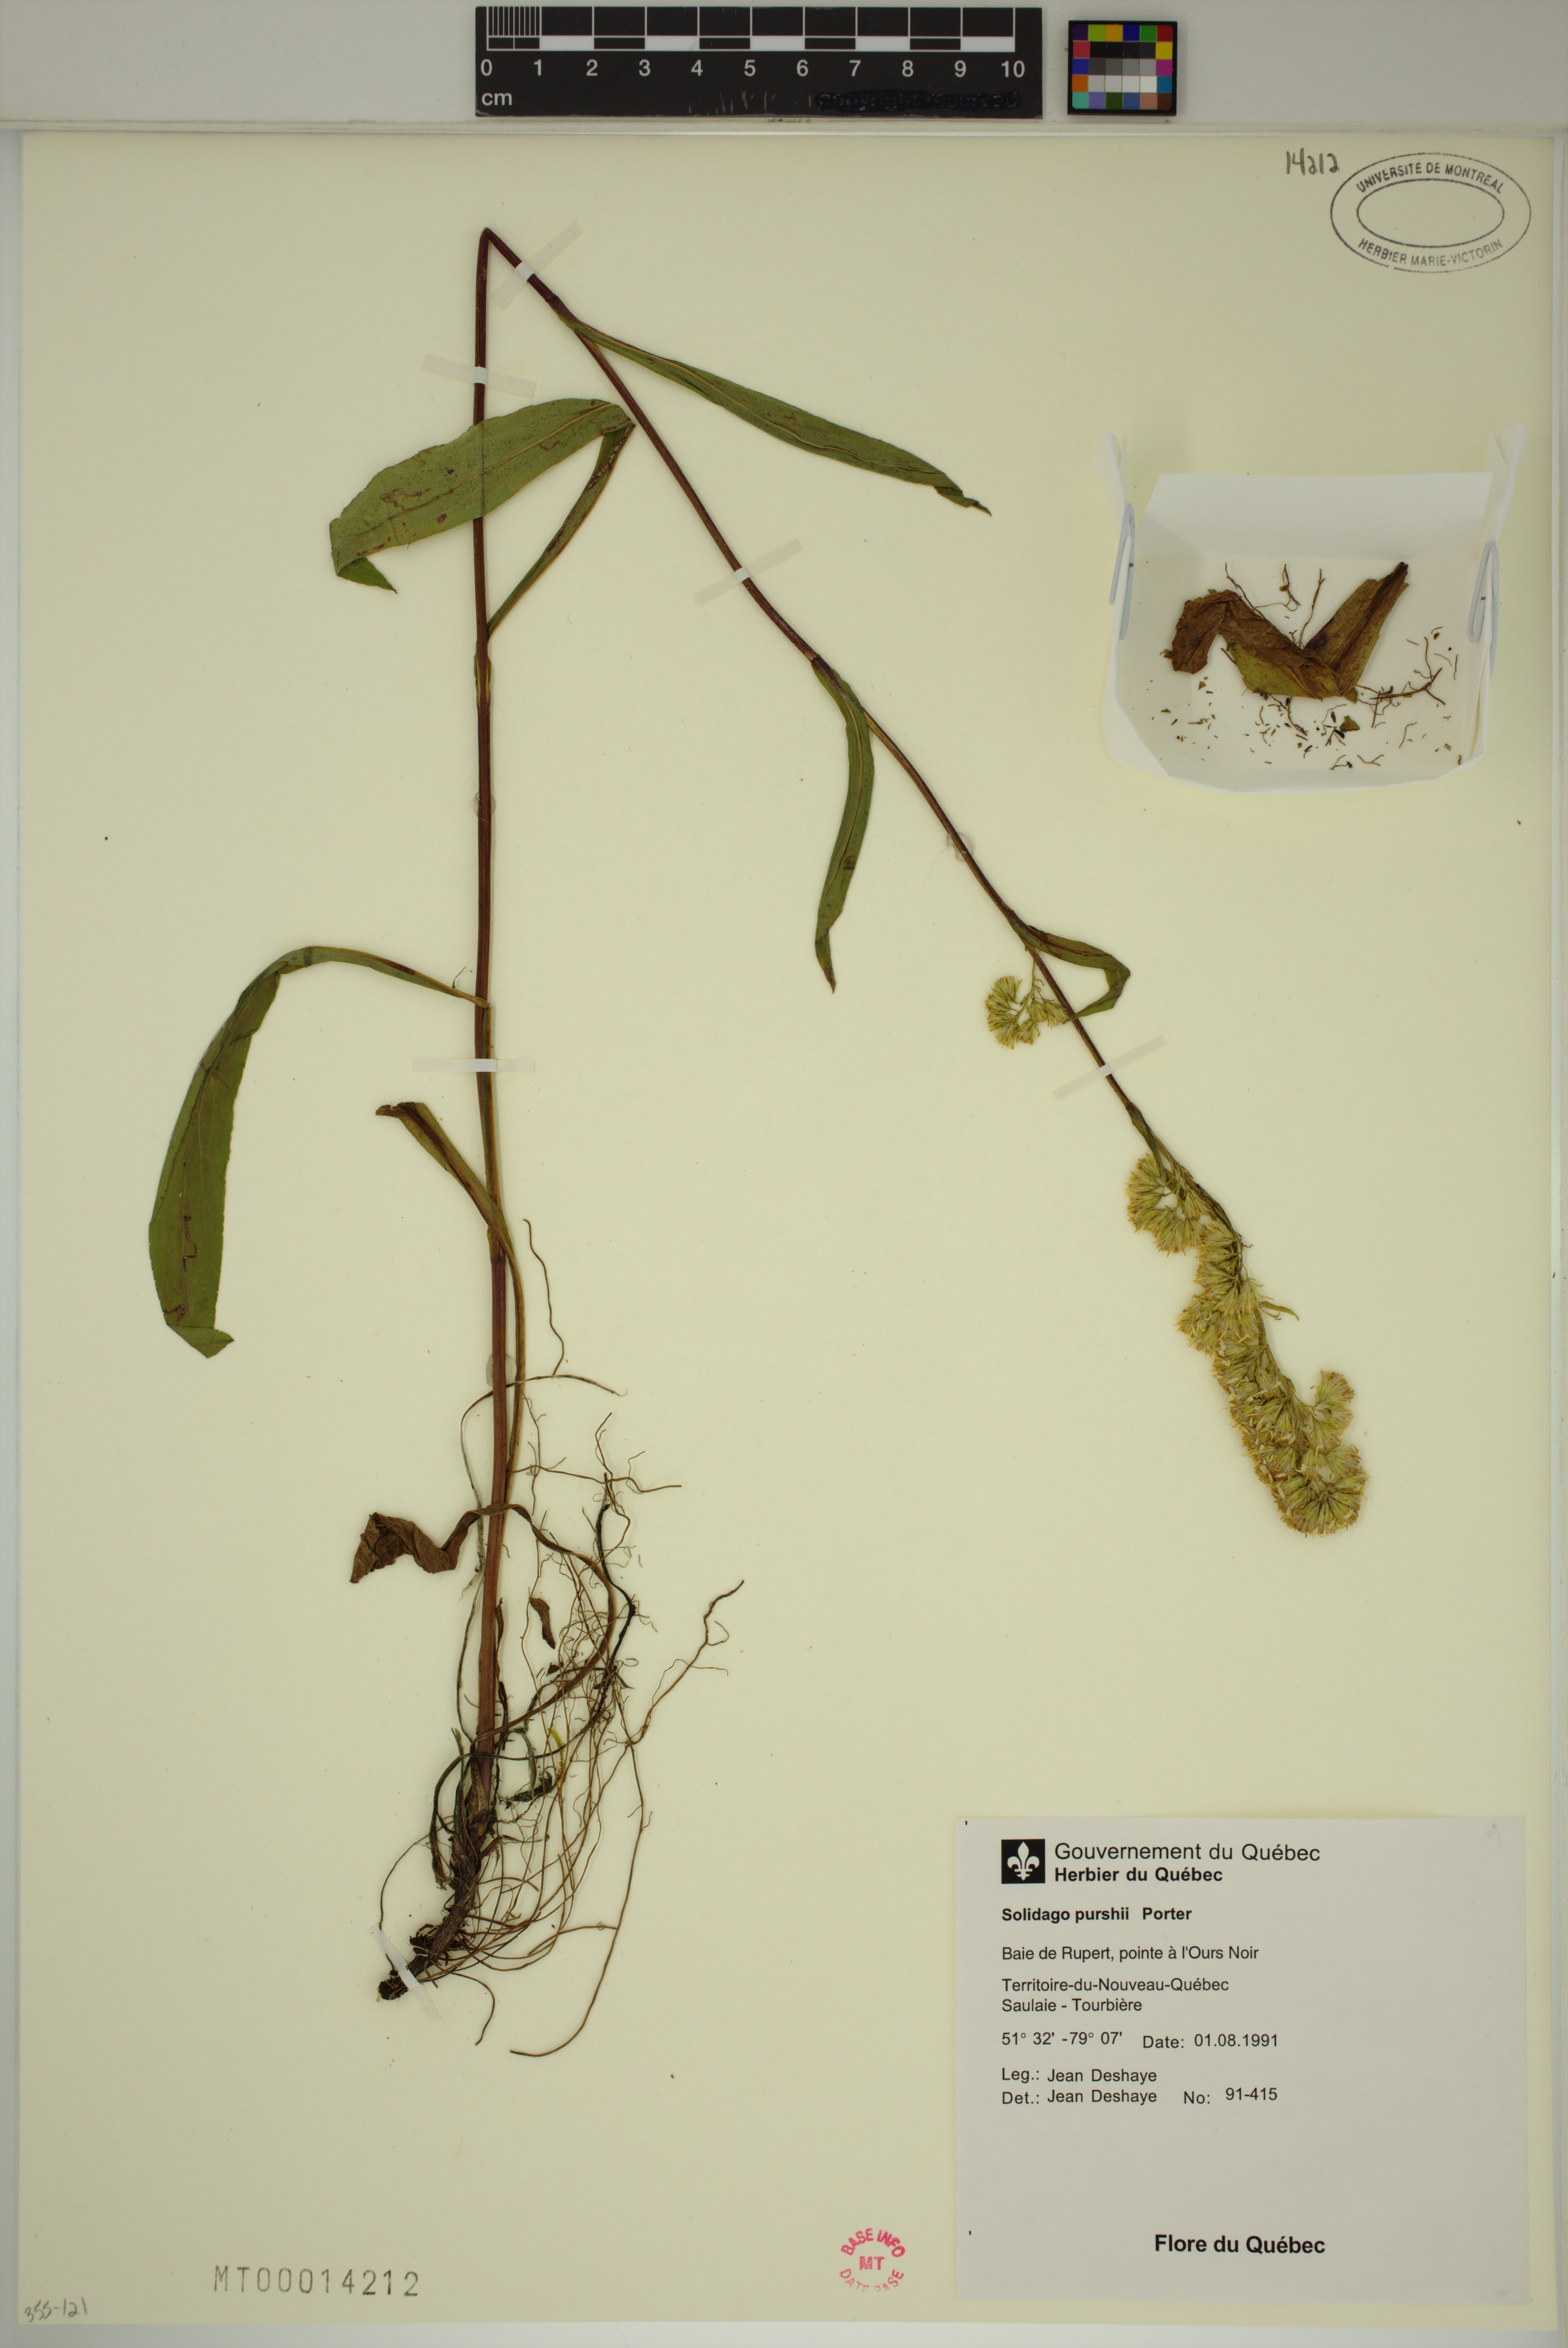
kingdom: Plantae
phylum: Tracheophyta
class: Magnoliopsida
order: Asterales
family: Asteraceae
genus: Solidago
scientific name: Solidago uliginosa
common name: Bog goldenrod
